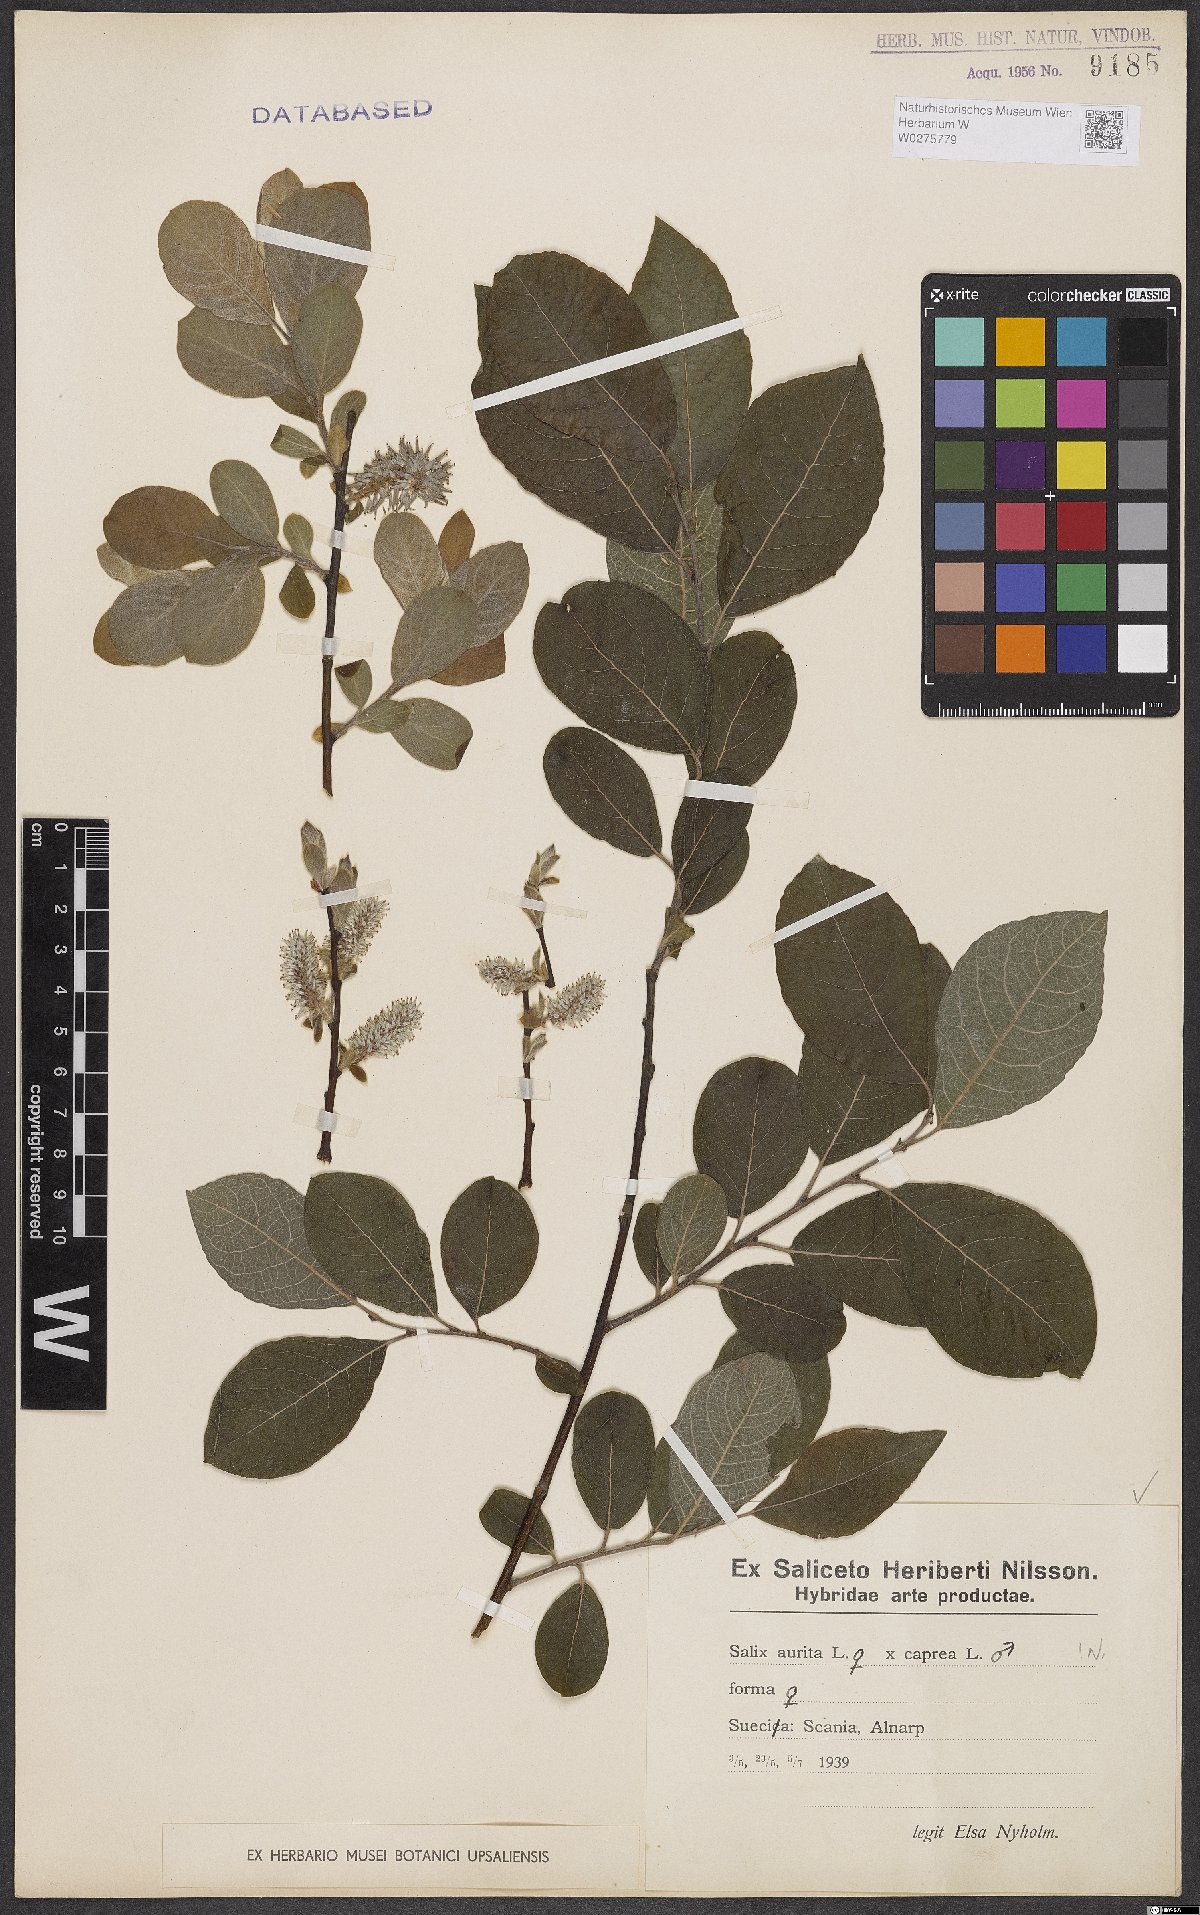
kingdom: Plantae
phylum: Tracheophyta
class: Magnoliopsida
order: Malpighiales
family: Salicaceae
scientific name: Salicaceae
